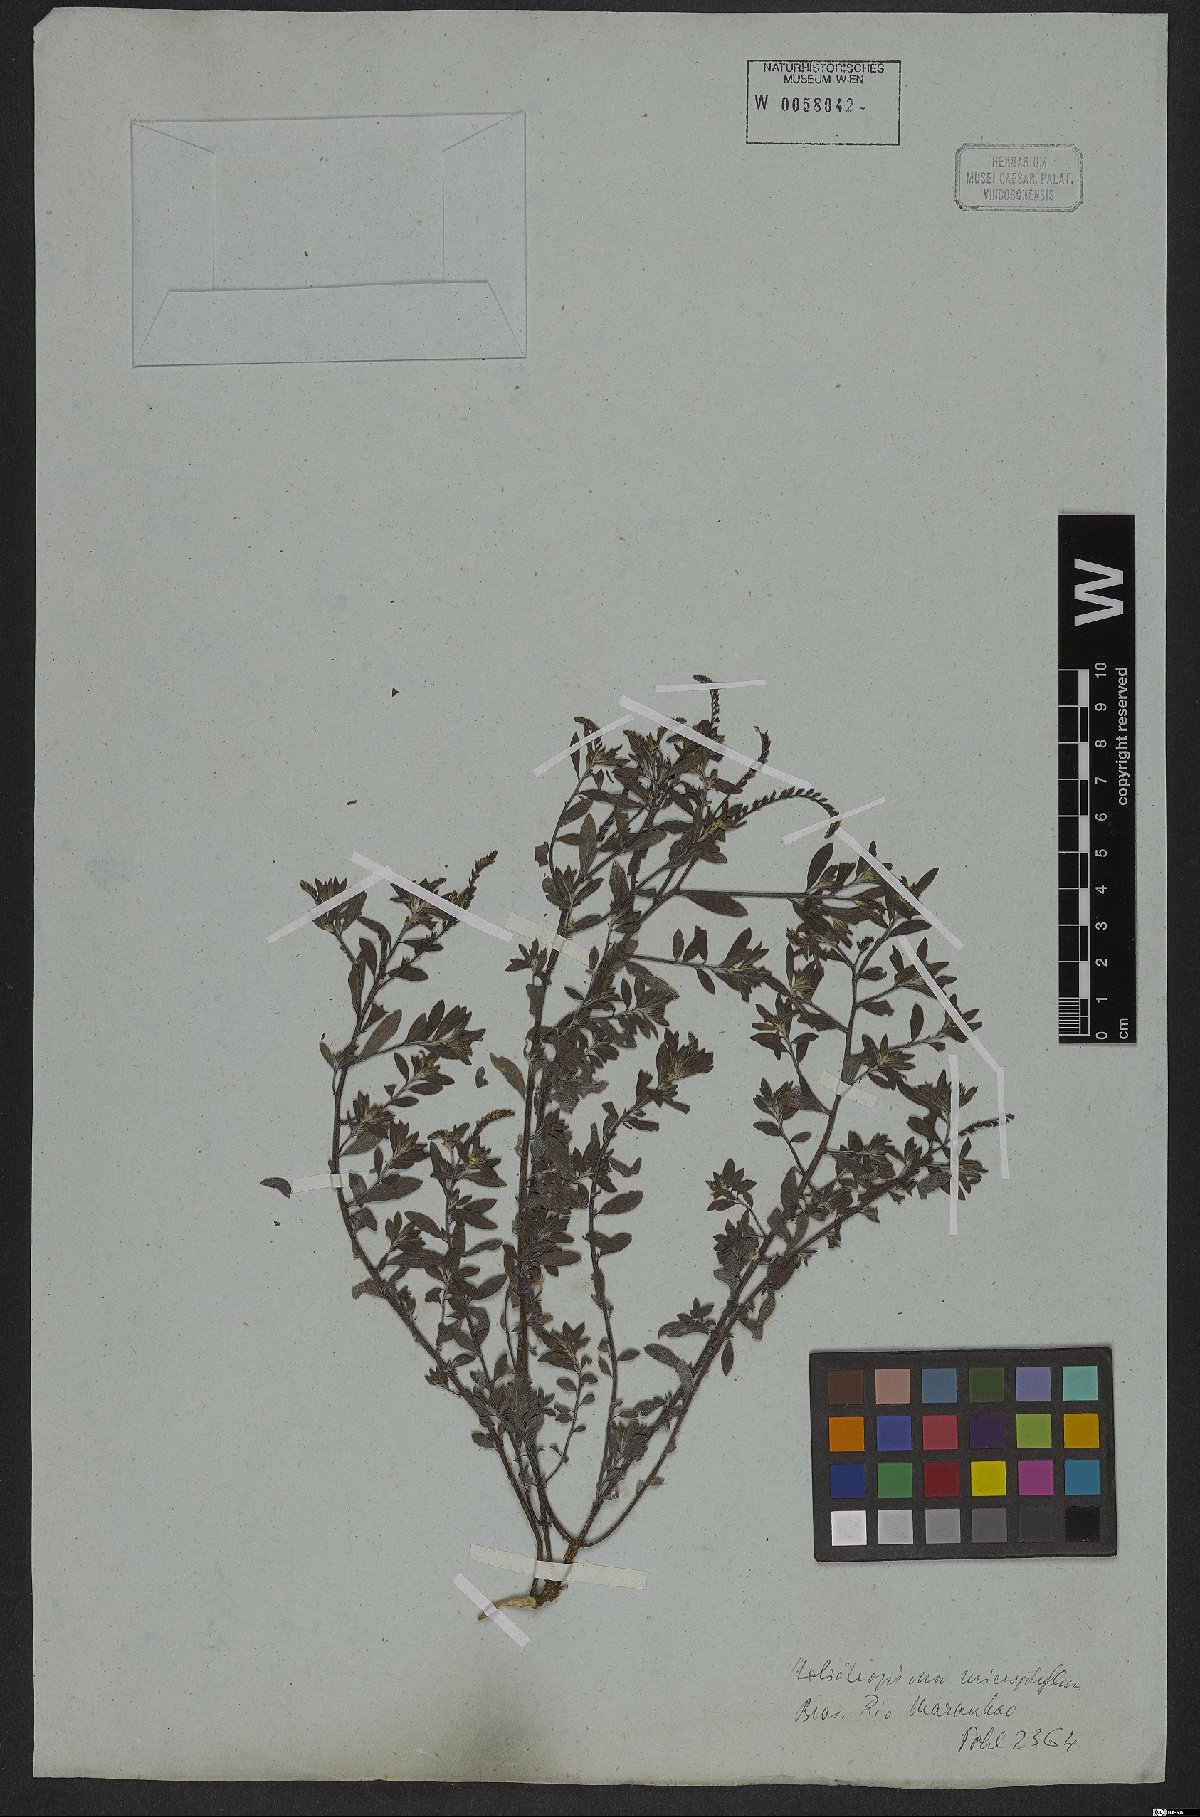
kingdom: Plantae
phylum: Tracheophyta
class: Magnoliopsida
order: Boraginales
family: Heliotropiaceae
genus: Euploca
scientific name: Euploca microphylla
